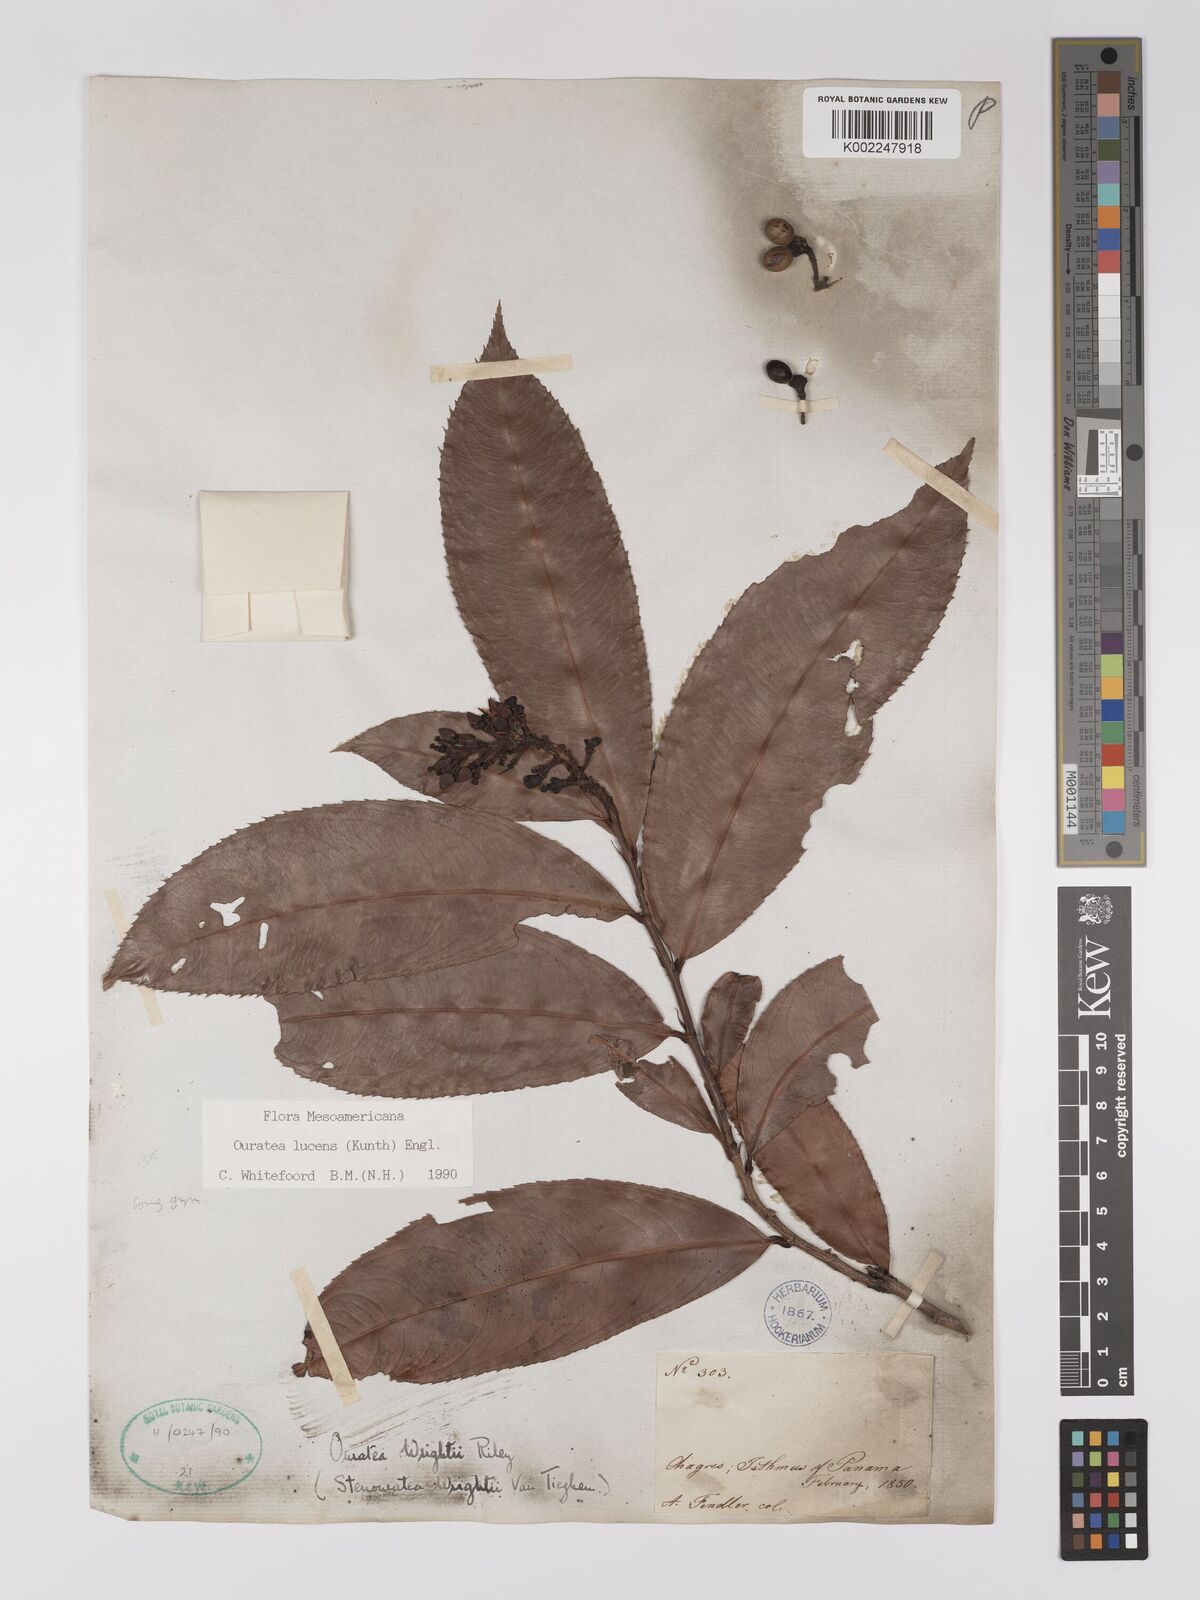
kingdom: Plantae
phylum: Tracheophyta
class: Magnoliopsida
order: Malpighiales
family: Ochnaceae
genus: Ouratea
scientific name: Ouratea lucens
